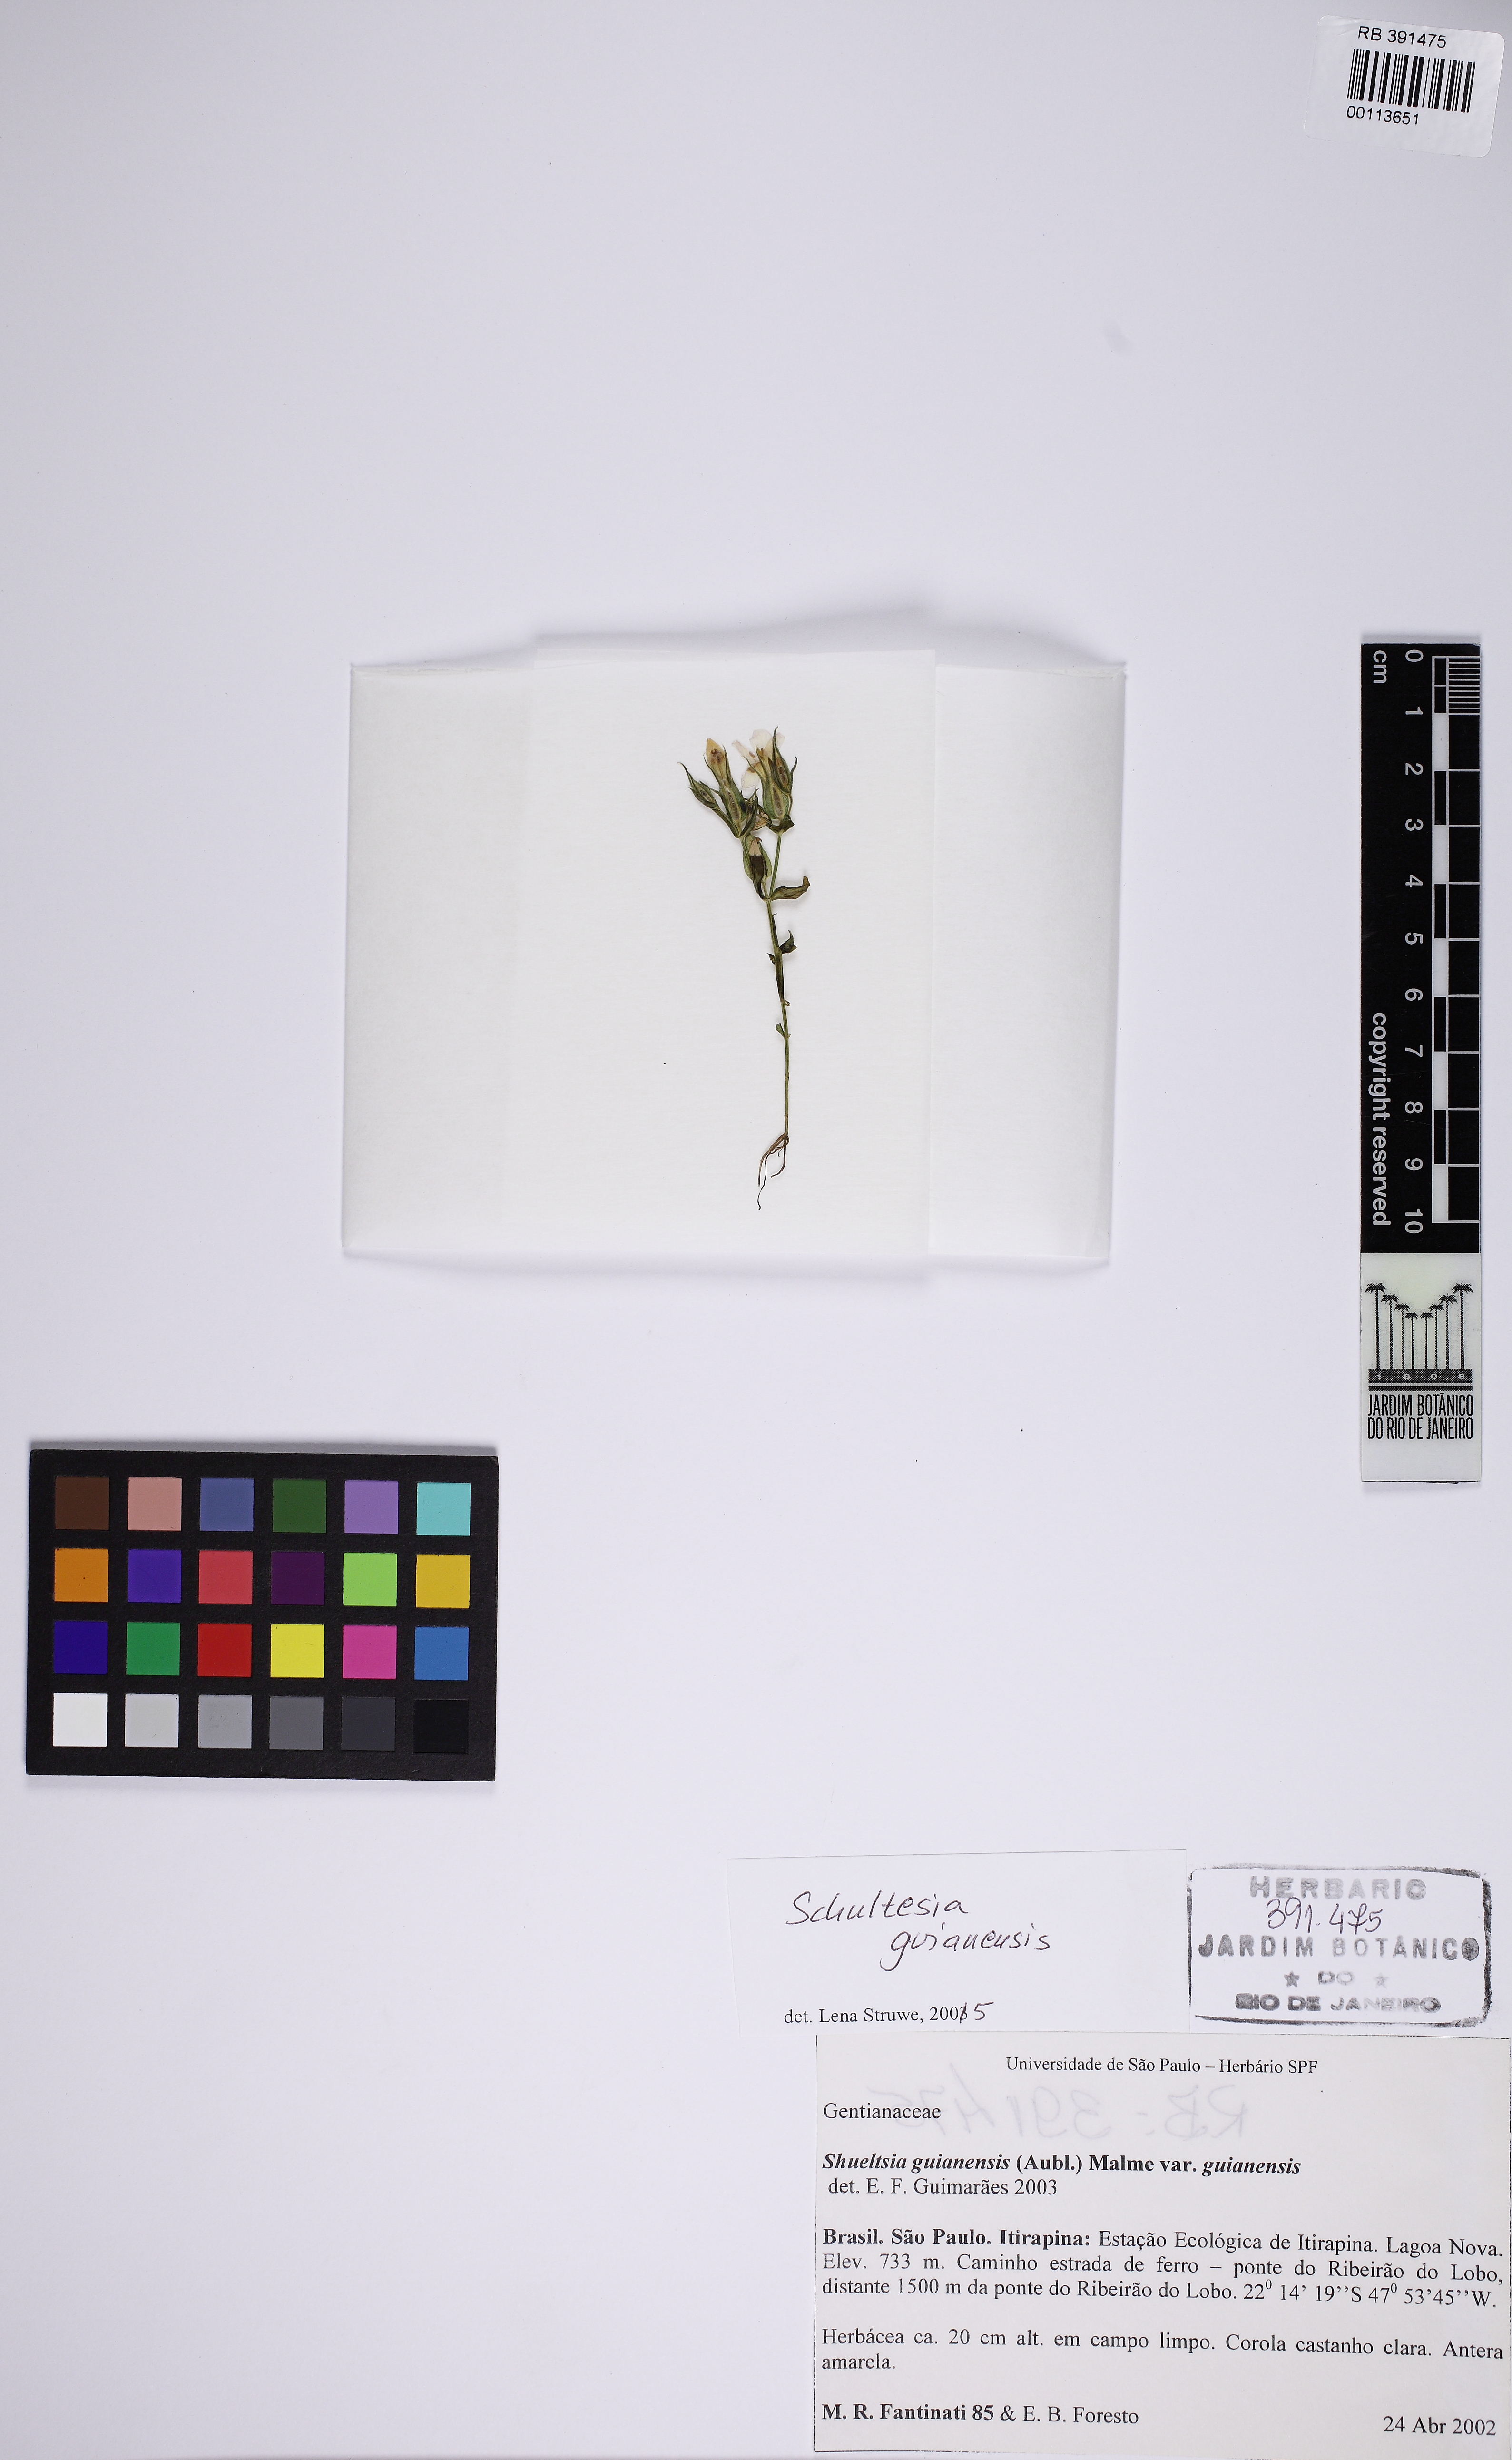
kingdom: Plantae
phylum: Tracheophyta
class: Magnoliopsida
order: Gentianales
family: Gentianaceae
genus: Schultesia
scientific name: Schultesia guianensis
